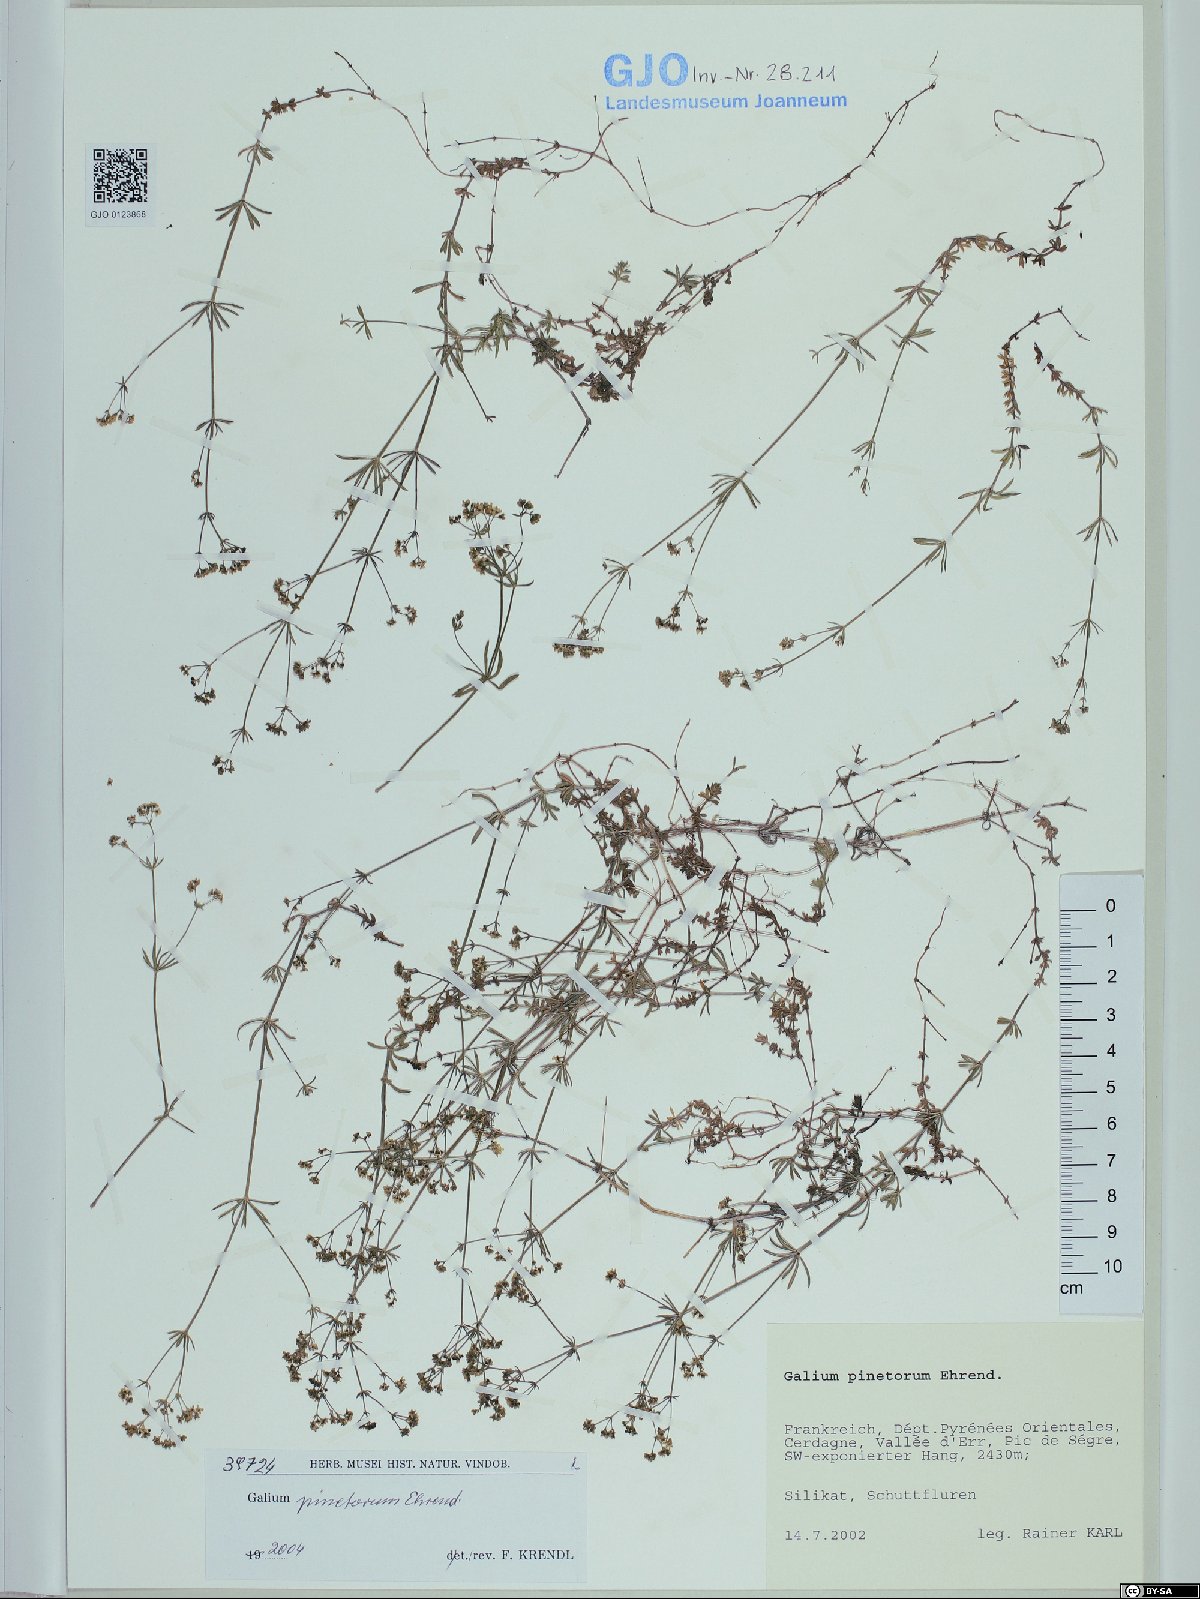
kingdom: Plantae
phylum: Tracheophyta
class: Magnoliopsida
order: Gentianales
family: Rubiaceae
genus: Galium
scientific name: Galium estebanii
